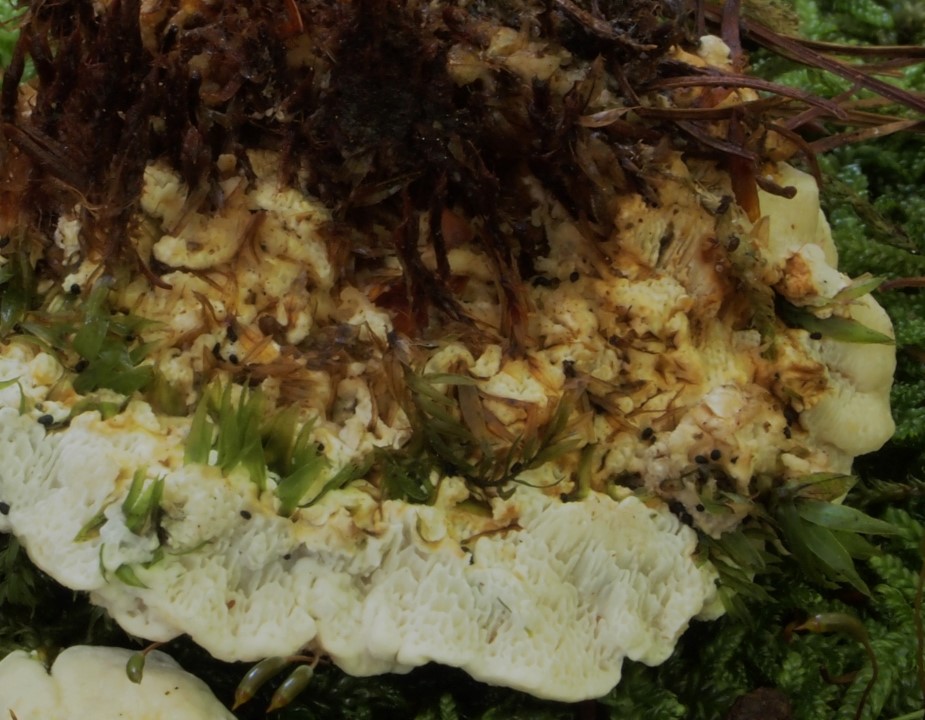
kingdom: Fungi
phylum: Basidiomycota
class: Agaricomycetes
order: Russulales
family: Bondarzewiaceae
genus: Heterobasidion
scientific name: Heterobasidion annosum
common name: almindelig rodfordærver
